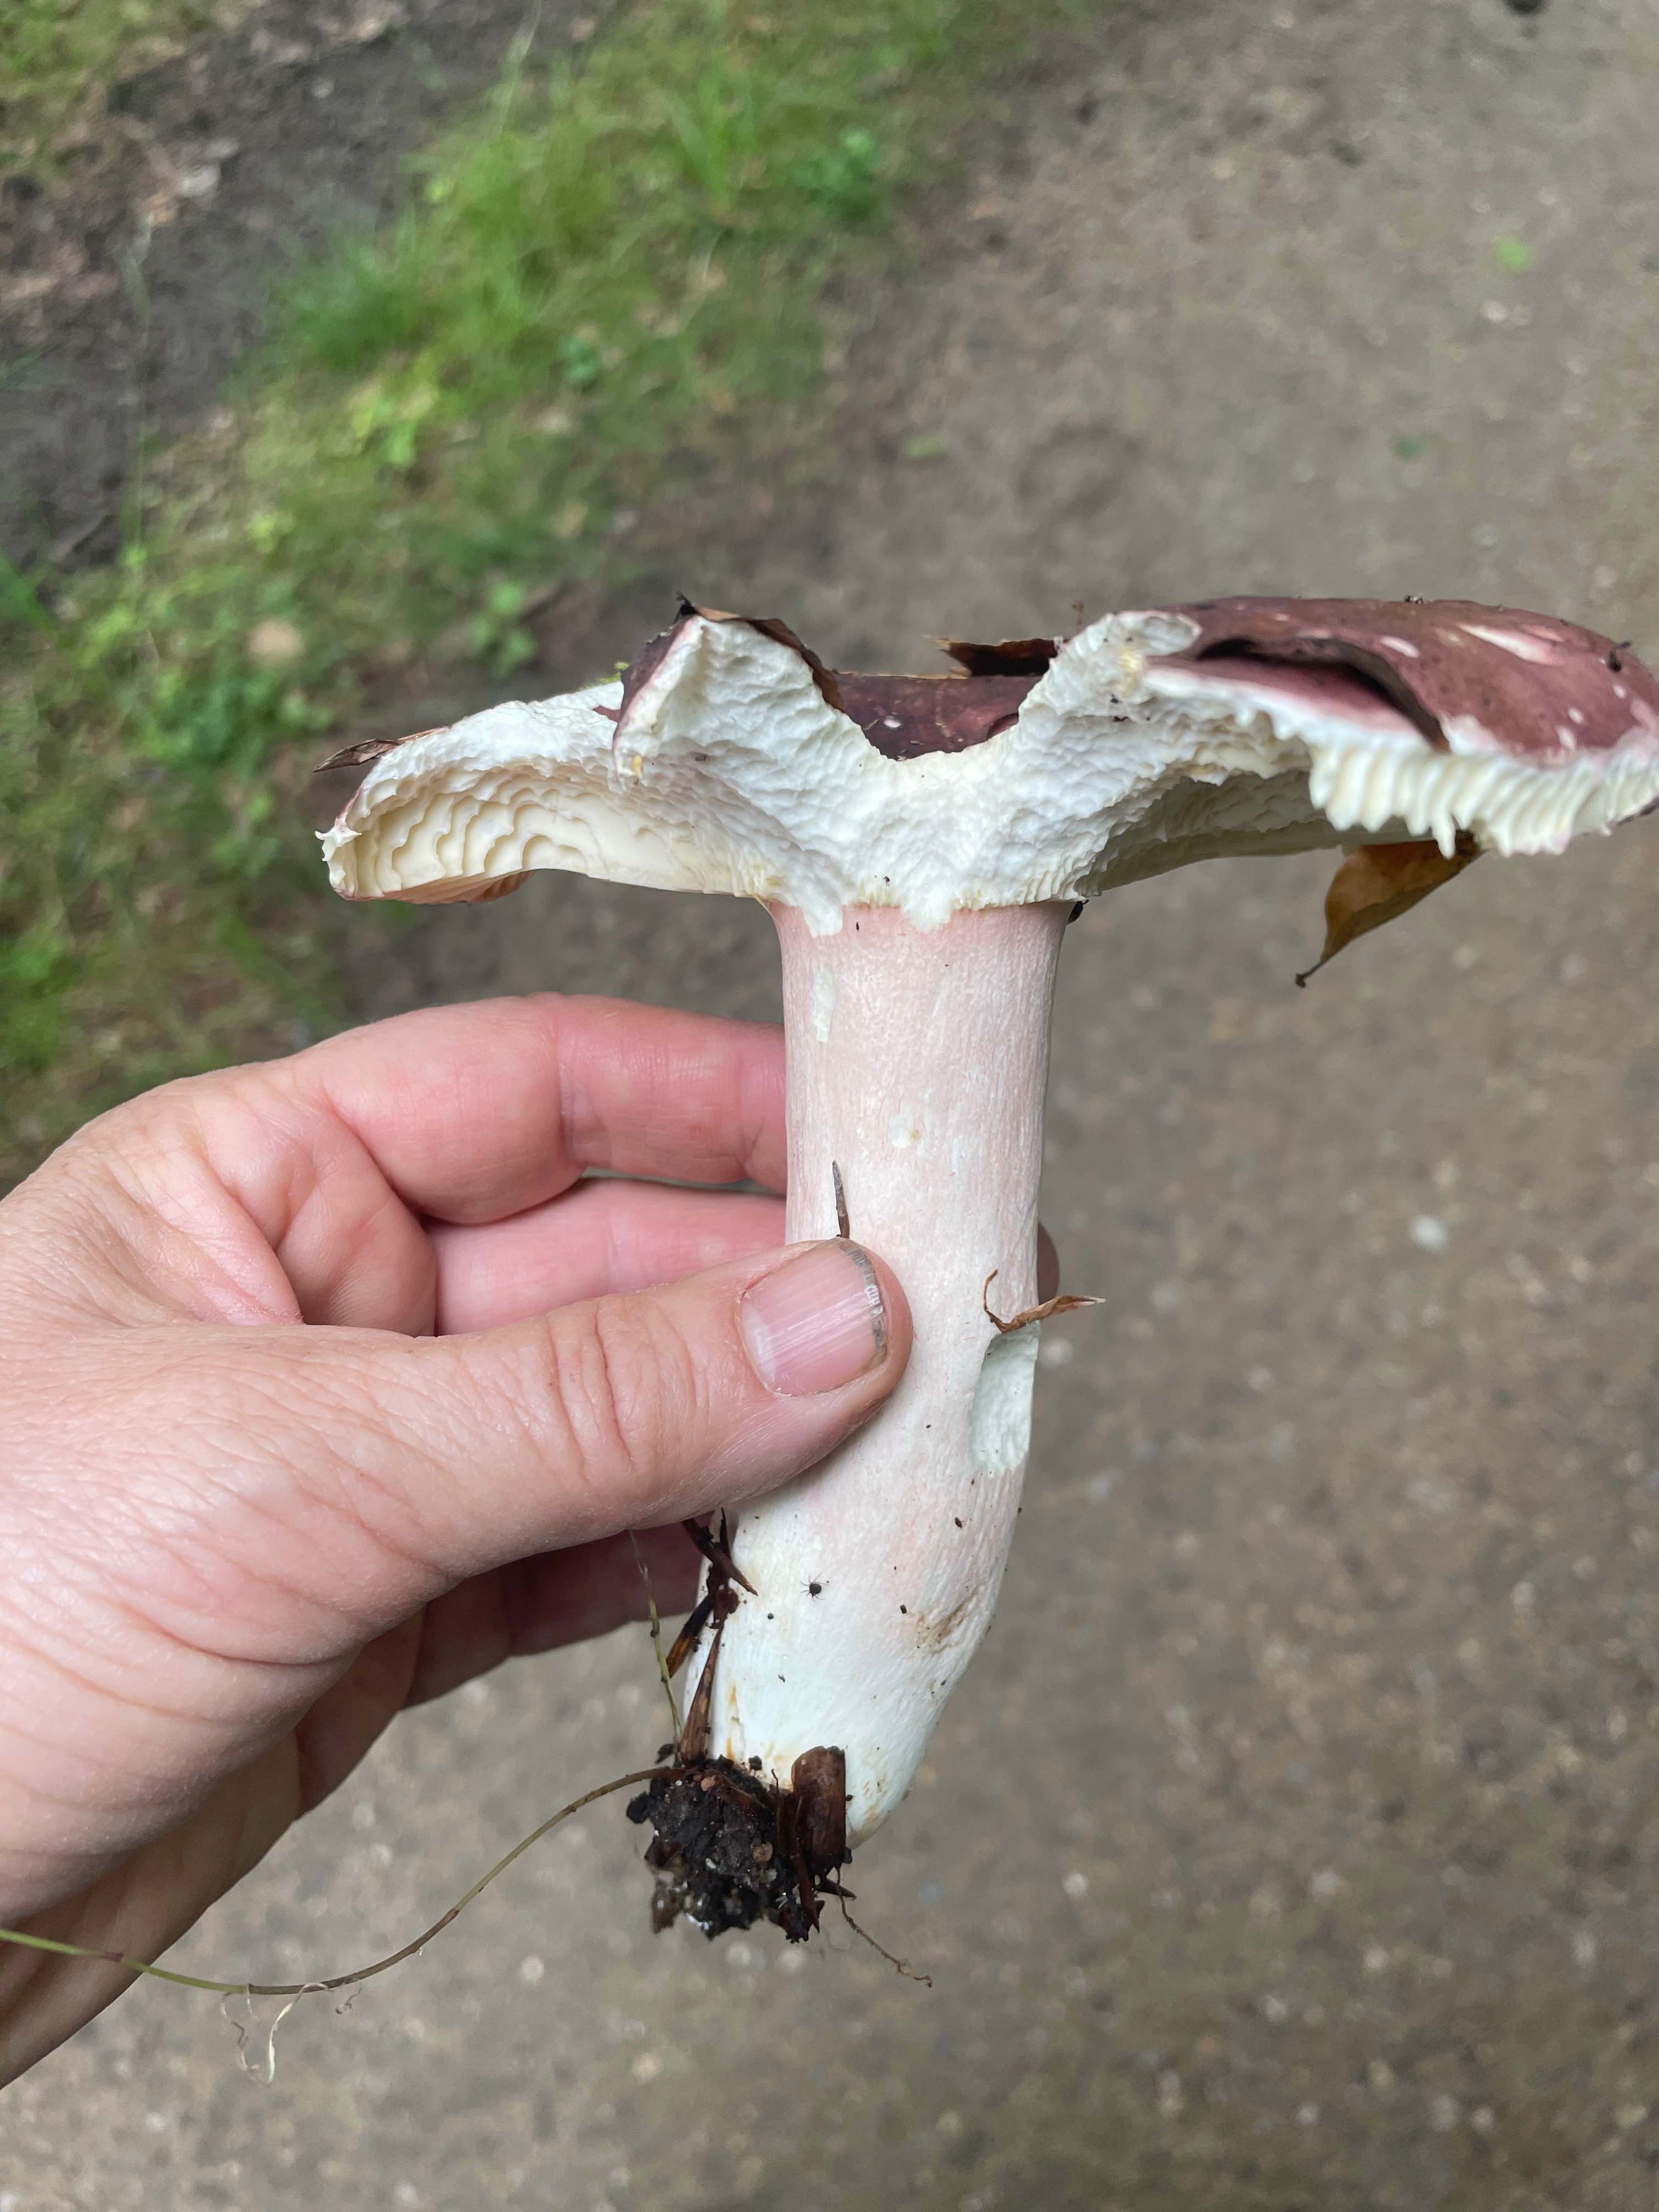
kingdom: Fungi
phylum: Basidiomycota
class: Agaricomycetes
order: Russulales
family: Russulaceae
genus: Russula
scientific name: Russula olivacea
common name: stor skørhat
